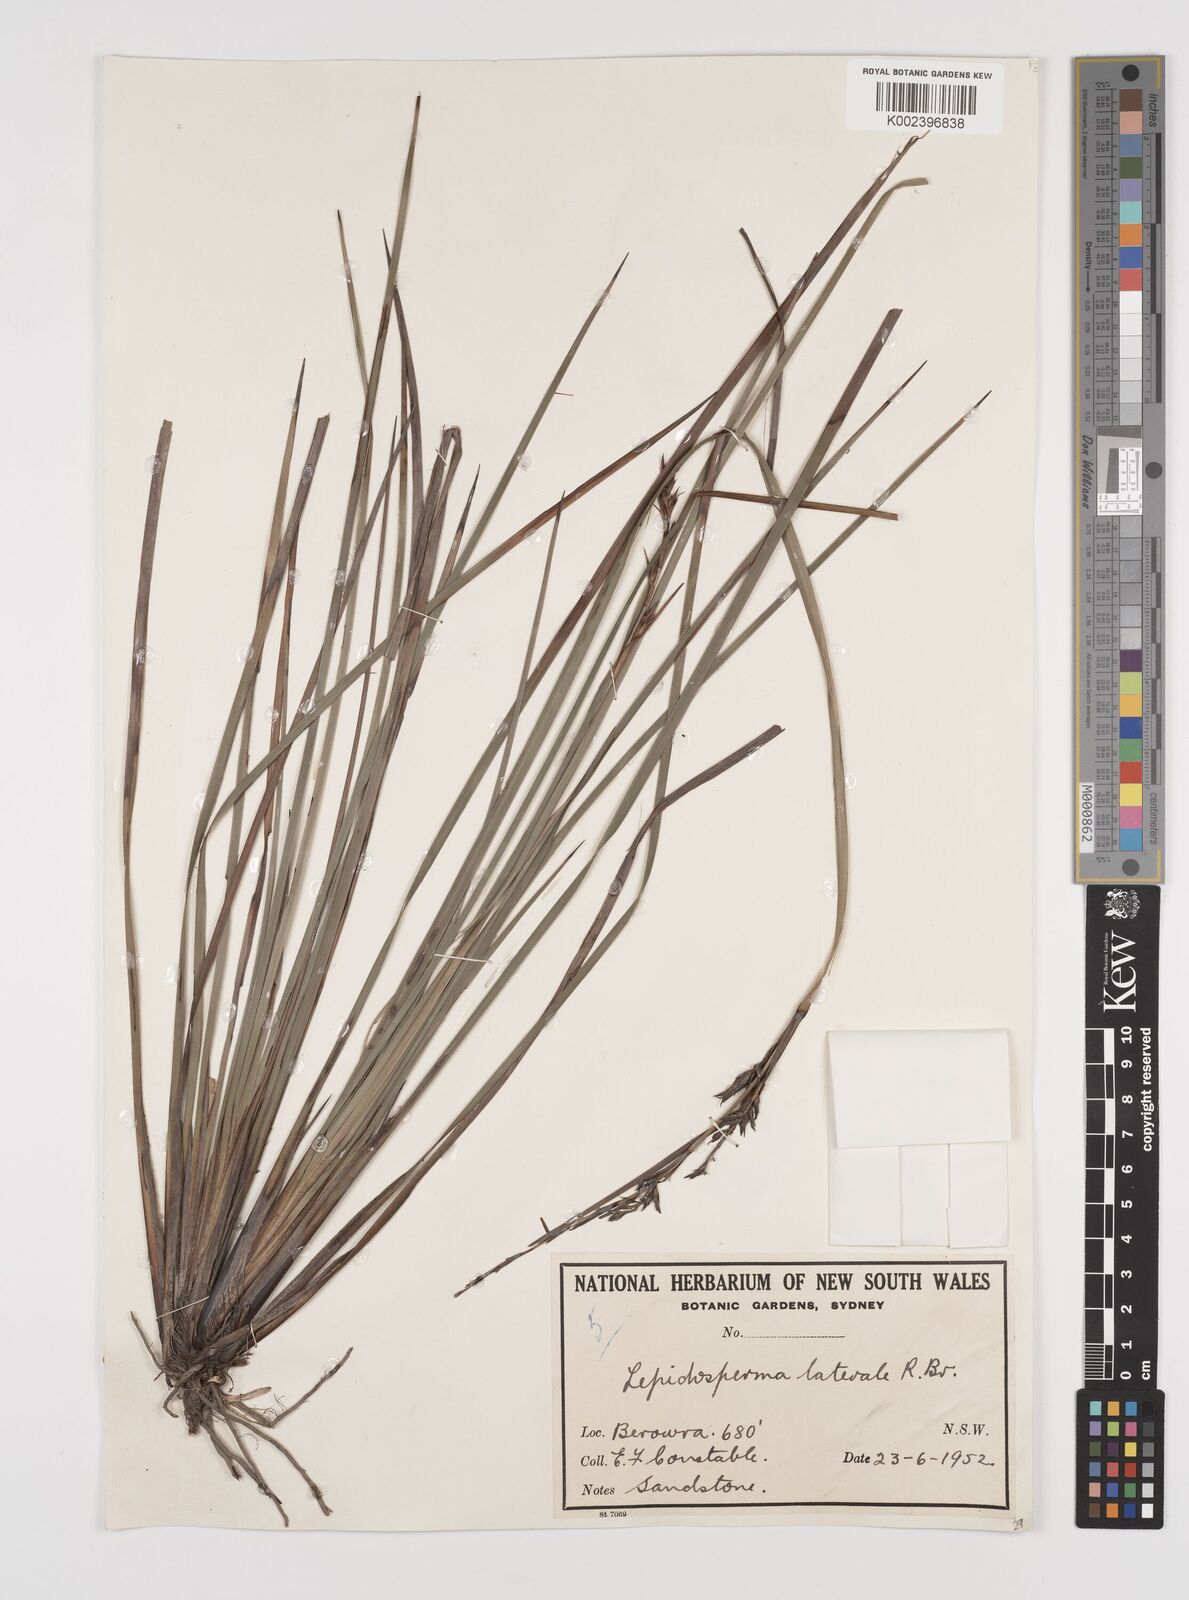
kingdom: Plantae
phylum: Tracheophyta
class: Liliopsida
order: Poales
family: Cyperaceae
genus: Lepidosperma
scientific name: Lepidosperma laterale
